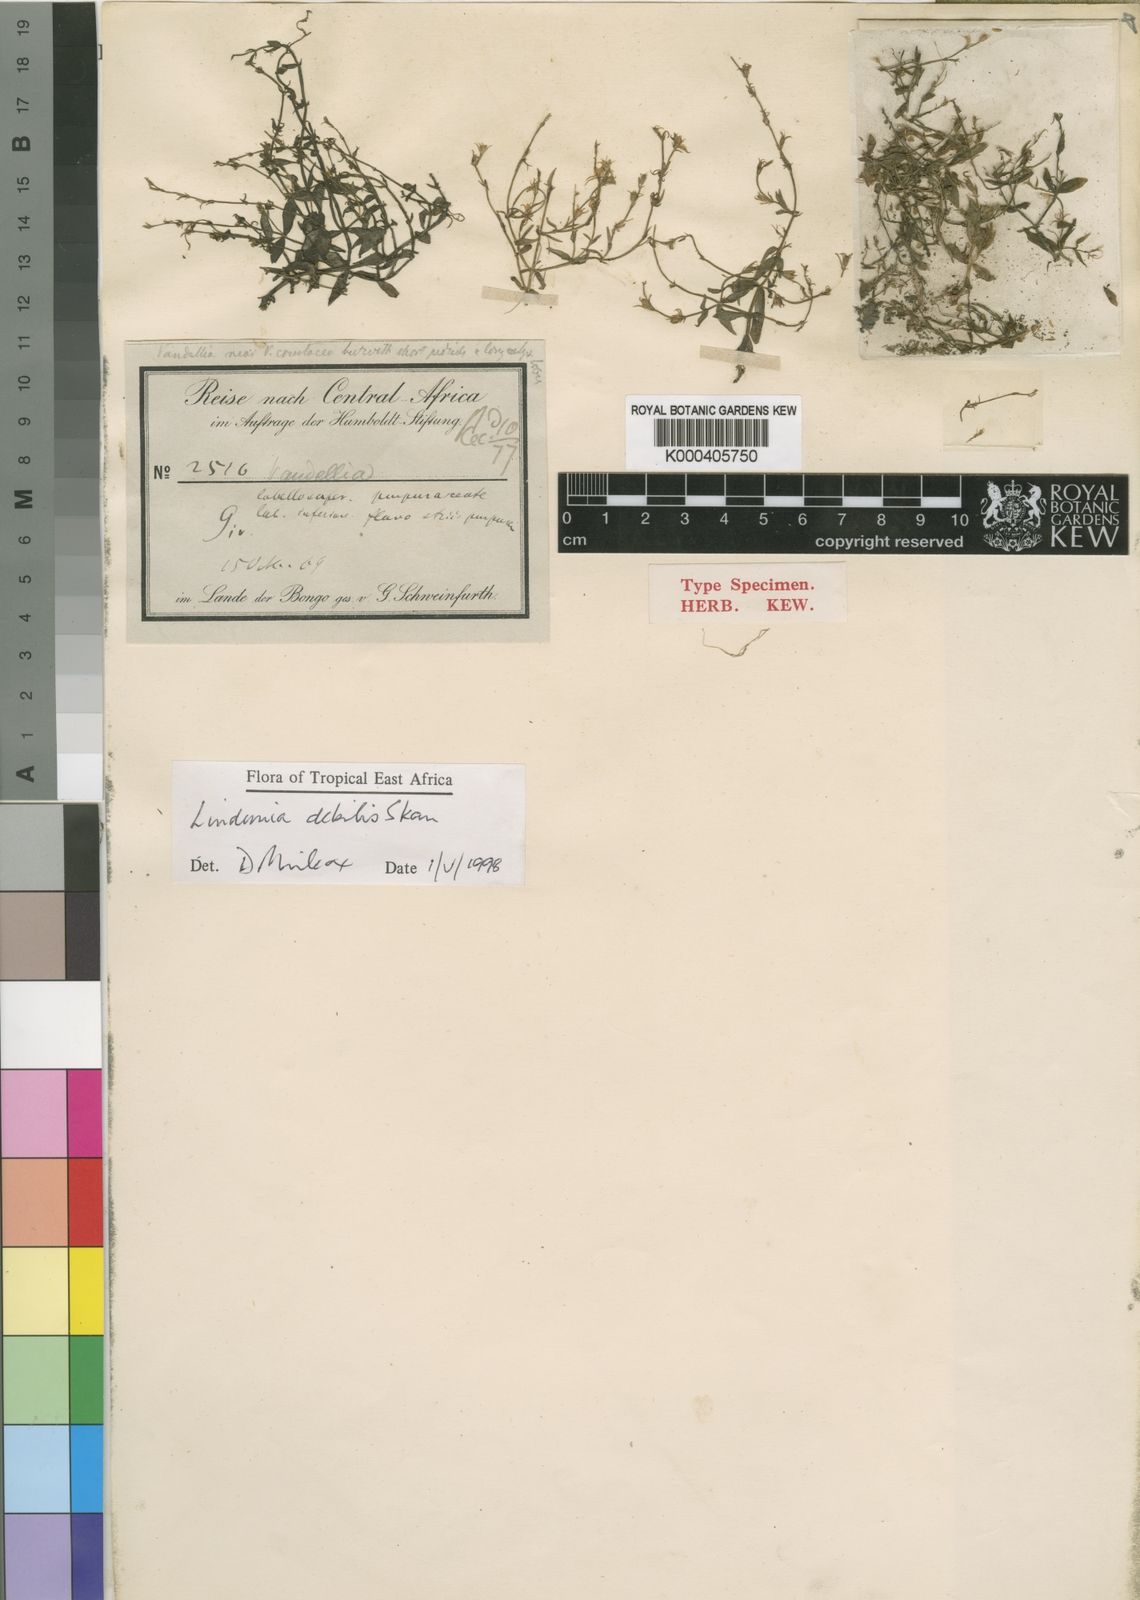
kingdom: Plantae
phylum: Tracheophyta
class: Magnoliopsida
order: Lamiales
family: Linderniaceae
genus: Crepidorhopalon
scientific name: Crepidorhopalon debilis
